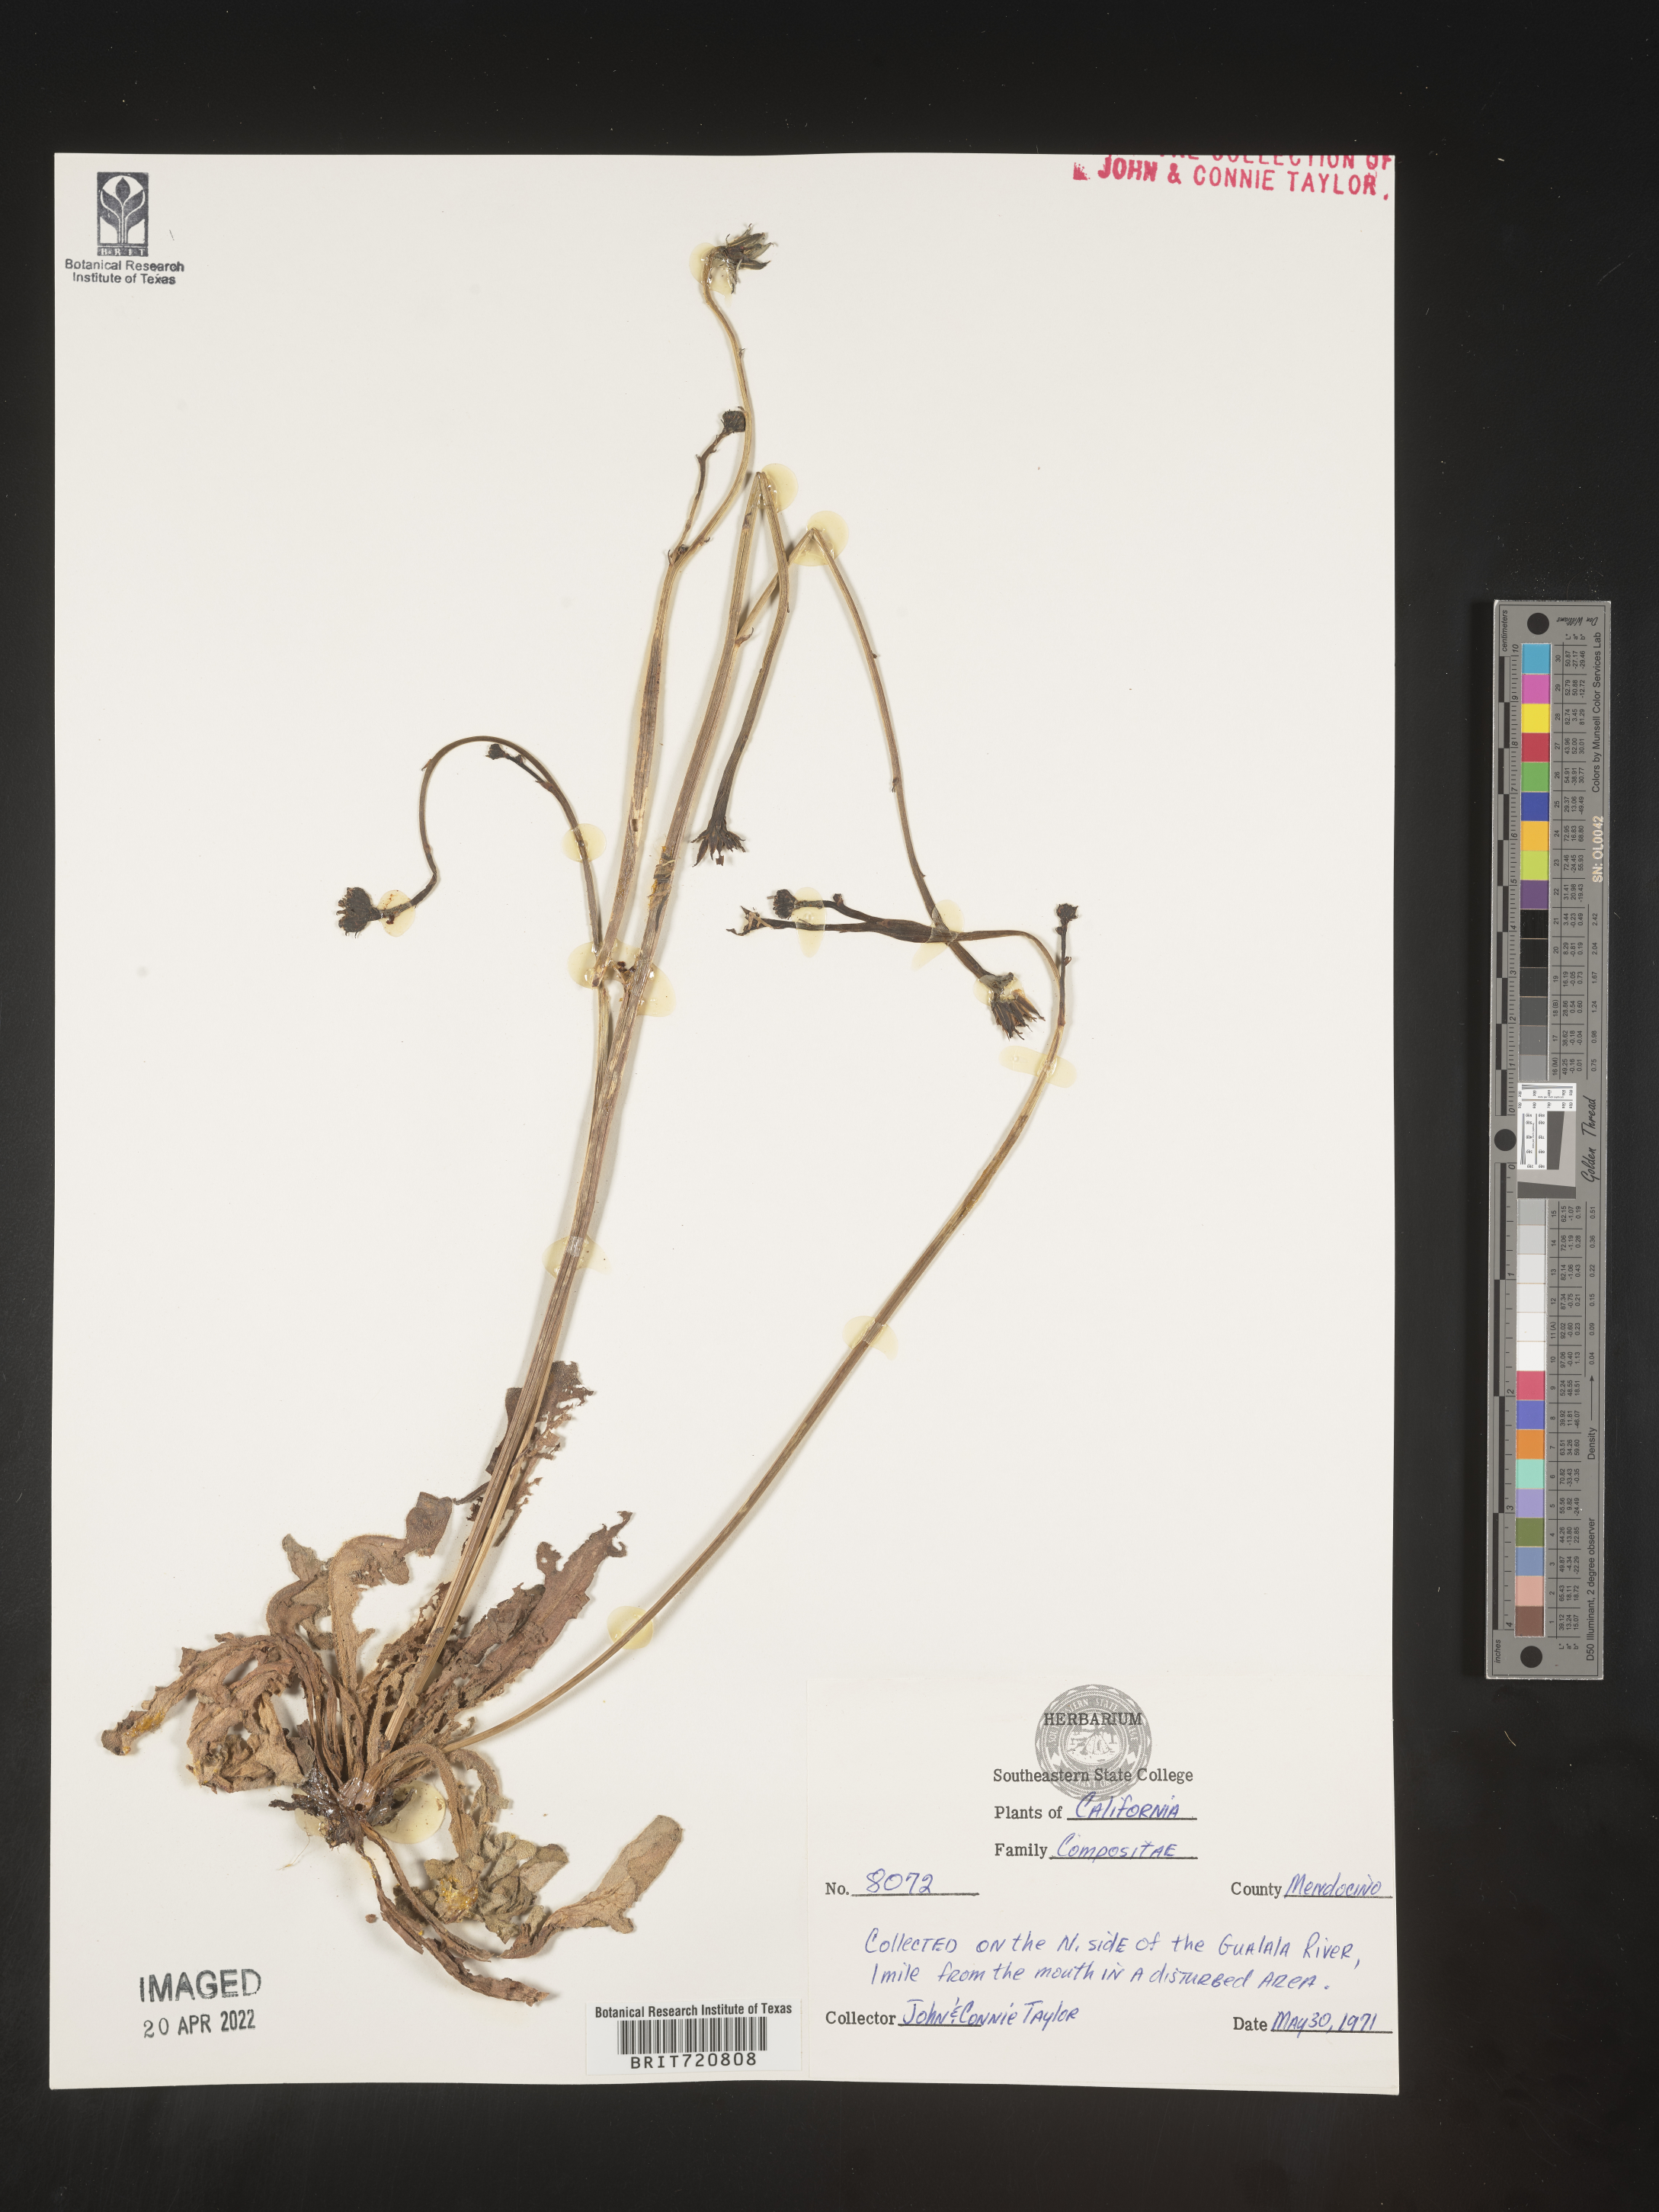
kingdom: Plantae
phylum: Tracheophyta
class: Magnoliopsida
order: Asterales
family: Asteraceae
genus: Hedypnois
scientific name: Hedypnois
